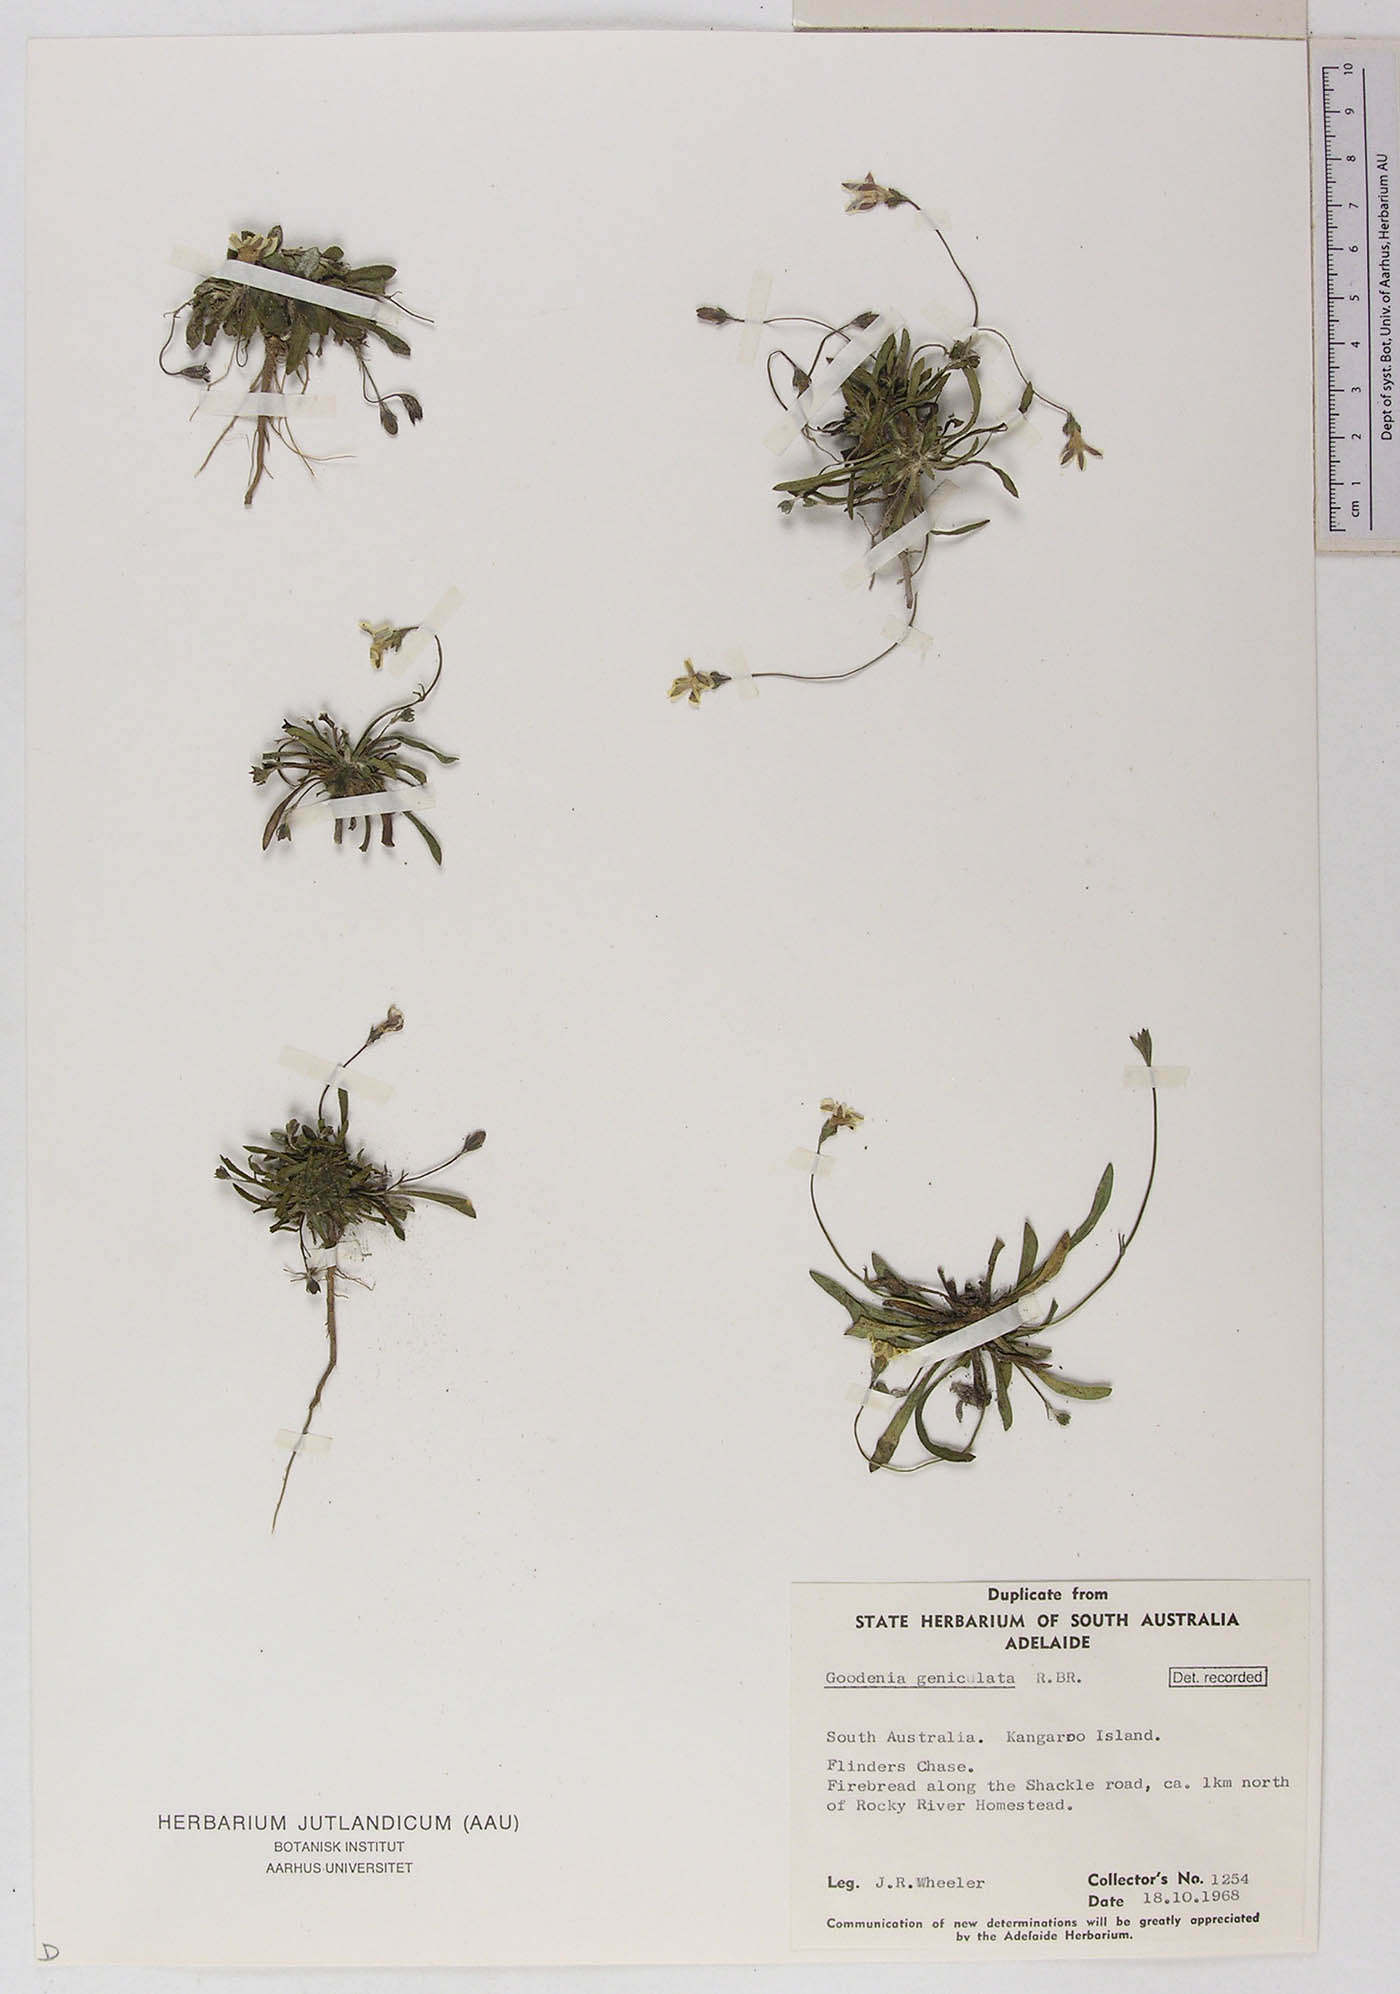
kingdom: Plantae
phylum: Tracheophyta
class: Magnoliopsida
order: Asterales
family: Goodeniaceae
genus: Goodenia
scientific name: Goodenia geniculata
